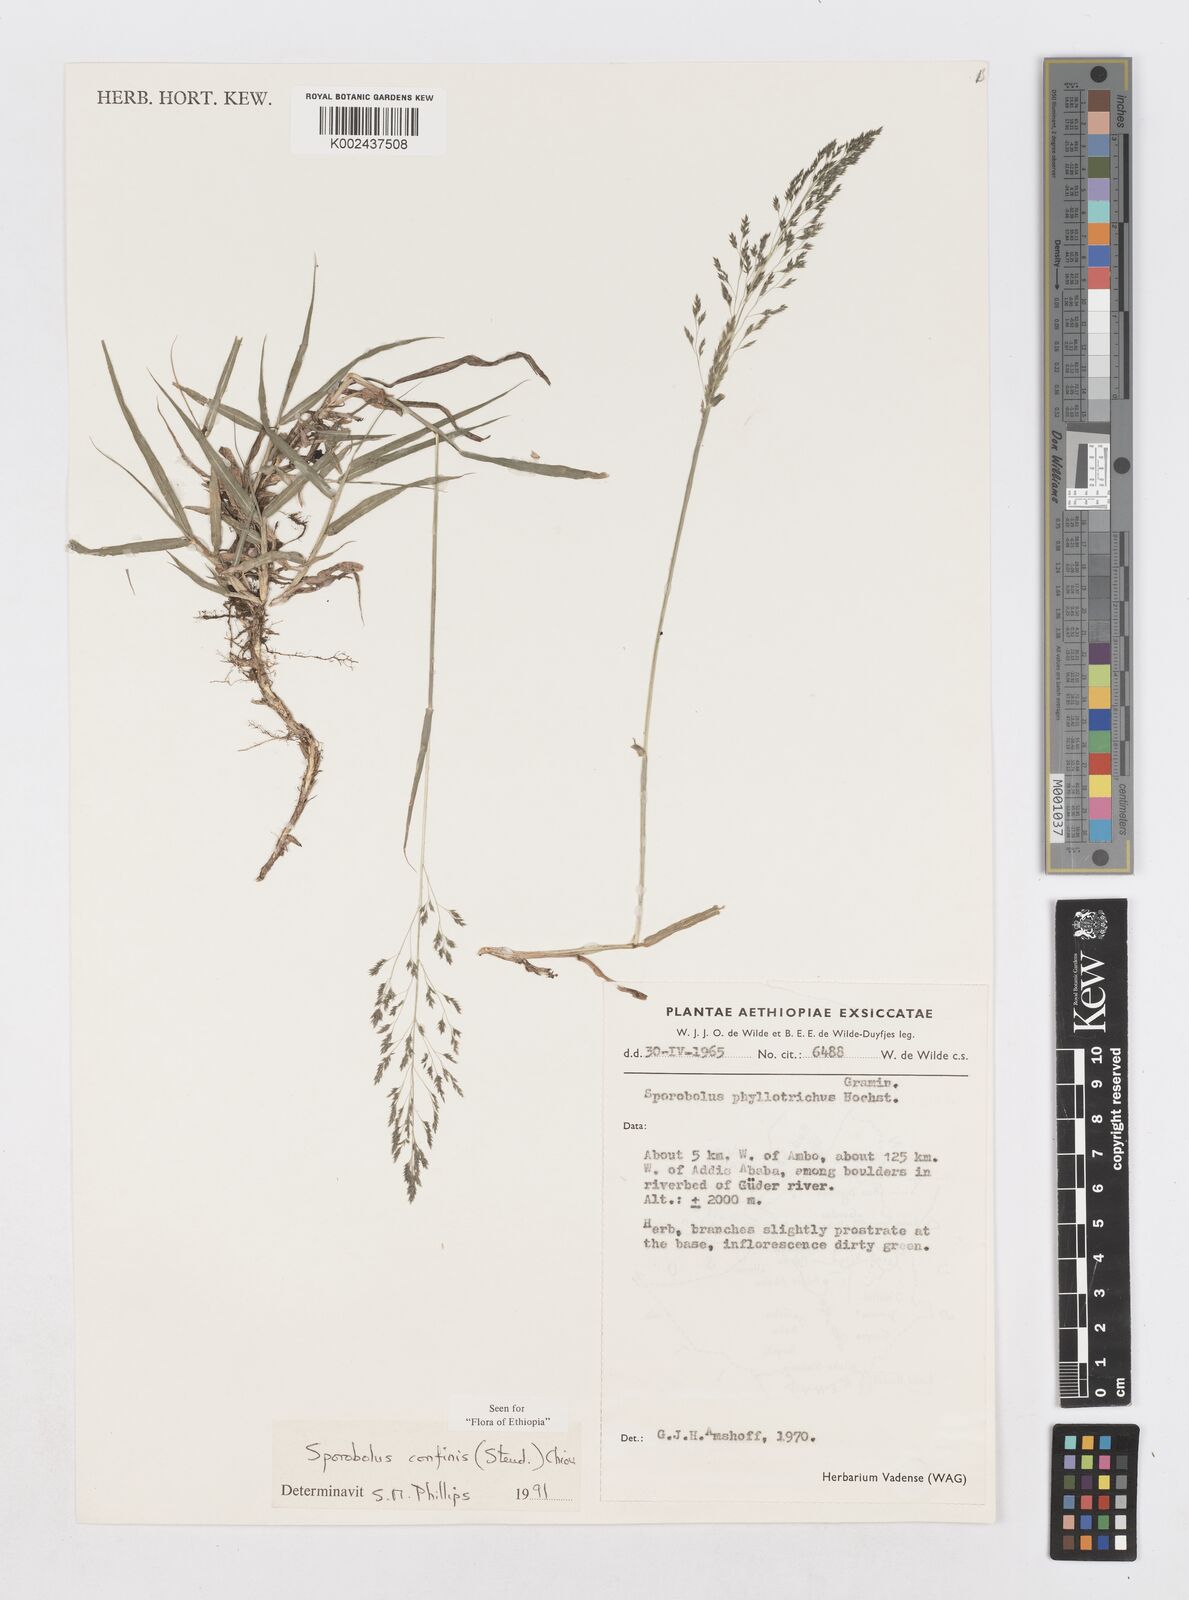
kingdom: Plantae
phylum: Tracheophyta
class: Liliopsida
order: Poales
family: Poaceae
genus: Sporobolus
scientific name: Sporobolus confinis
